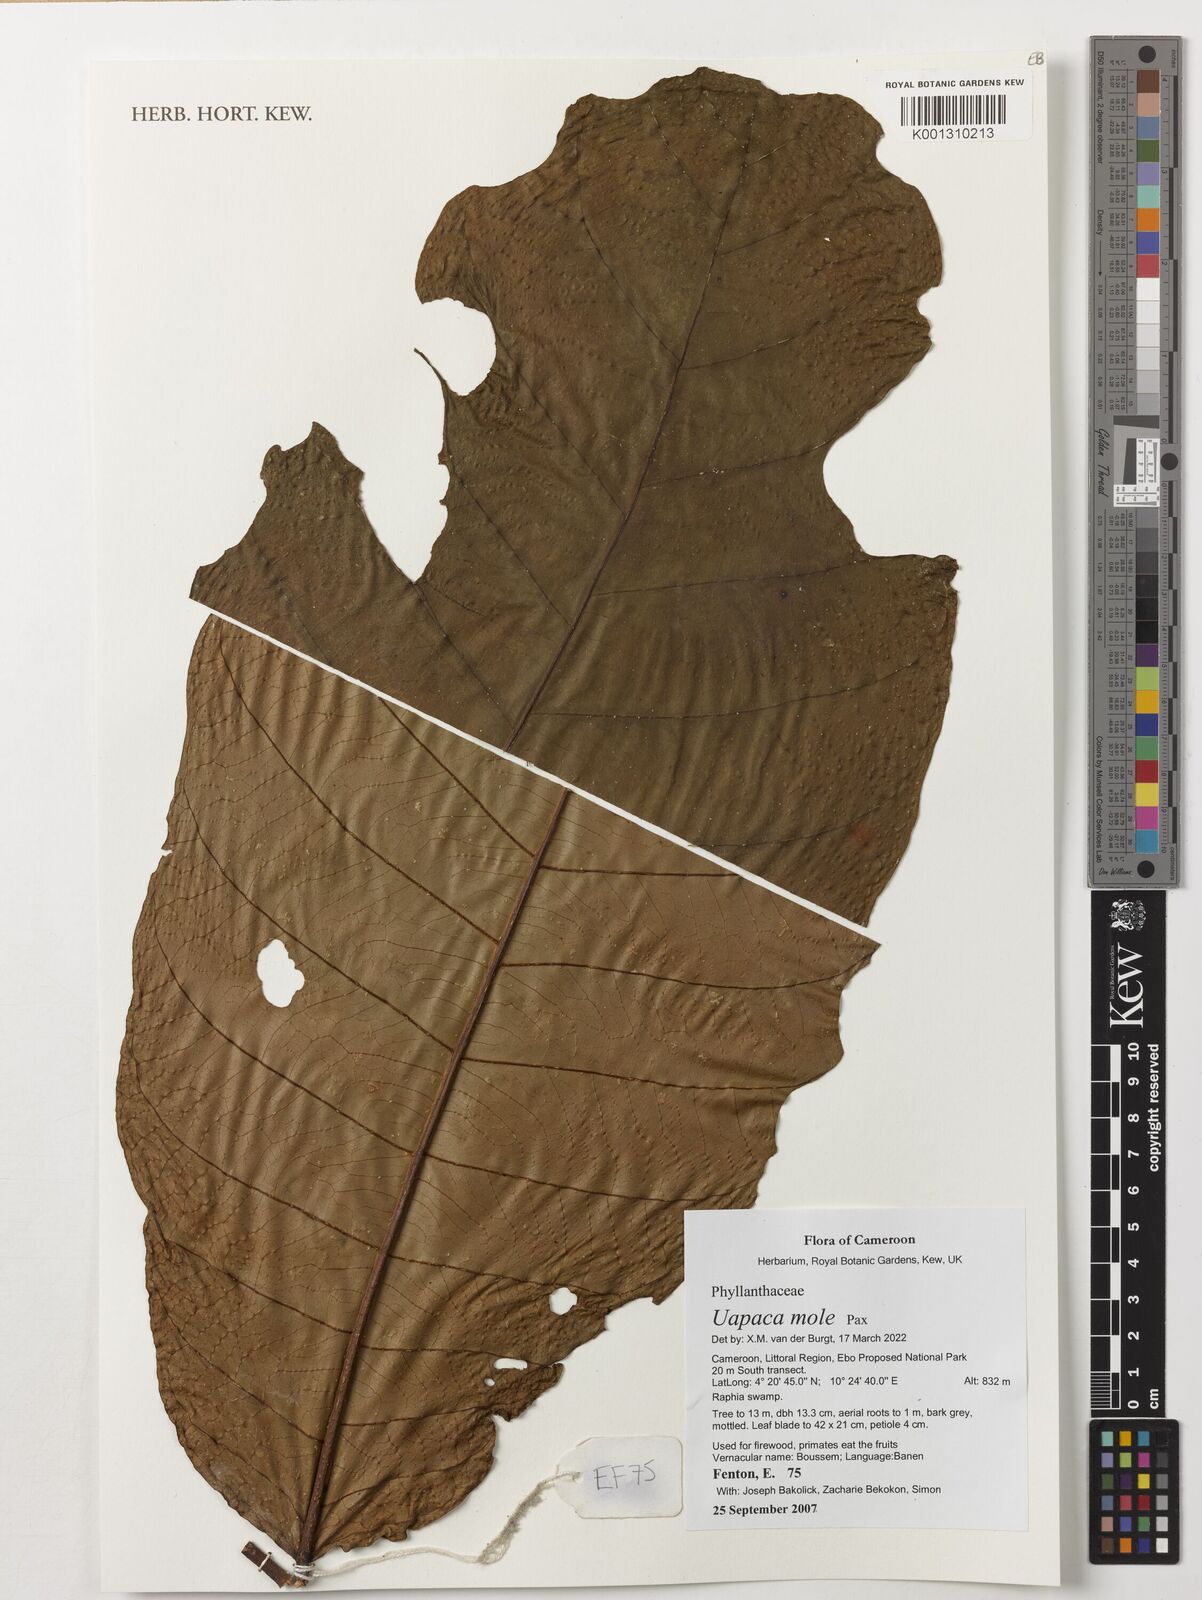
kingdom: Plantae
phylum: Tracheophyta
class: Magnoliopsida
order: Malpighiales
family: Phyllanthaceae
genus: Uapaca
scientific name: Uapaca mole
